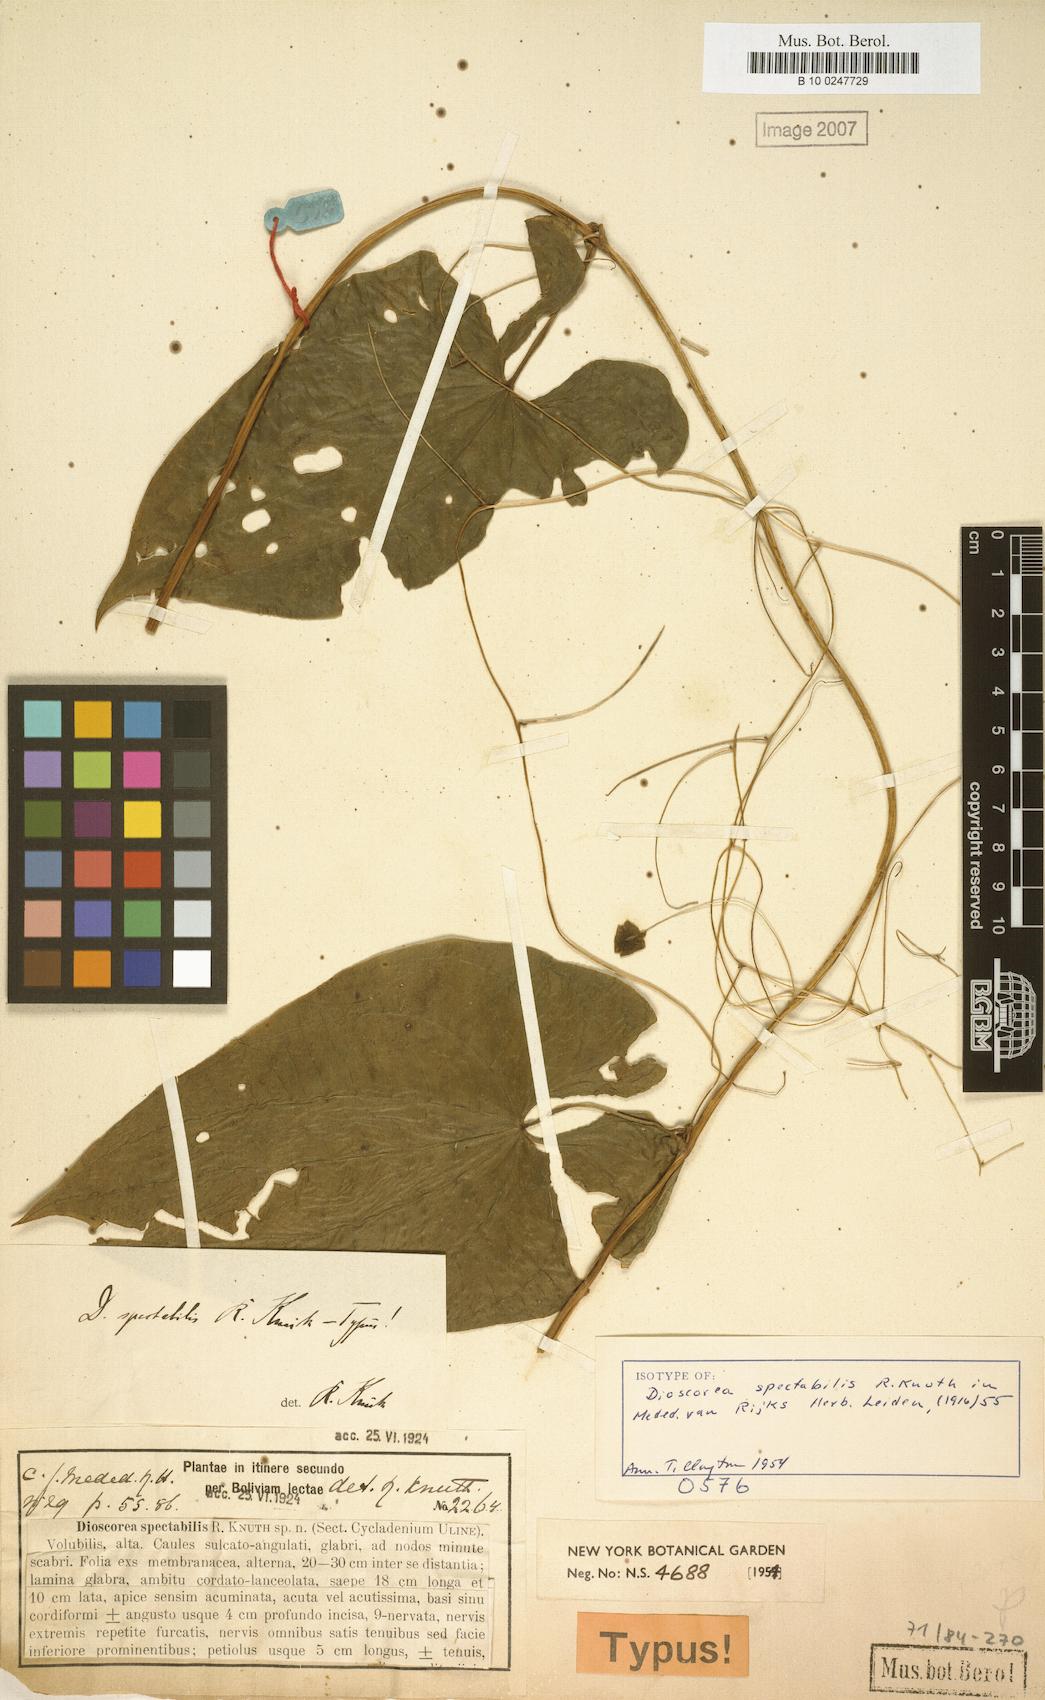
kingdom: Plantae
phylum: Tracheophyta
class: Liliopsida
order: Dioscoreales
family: Dioscoreaceae
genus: Dioscorea
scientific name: Dioscorea spectabilis
